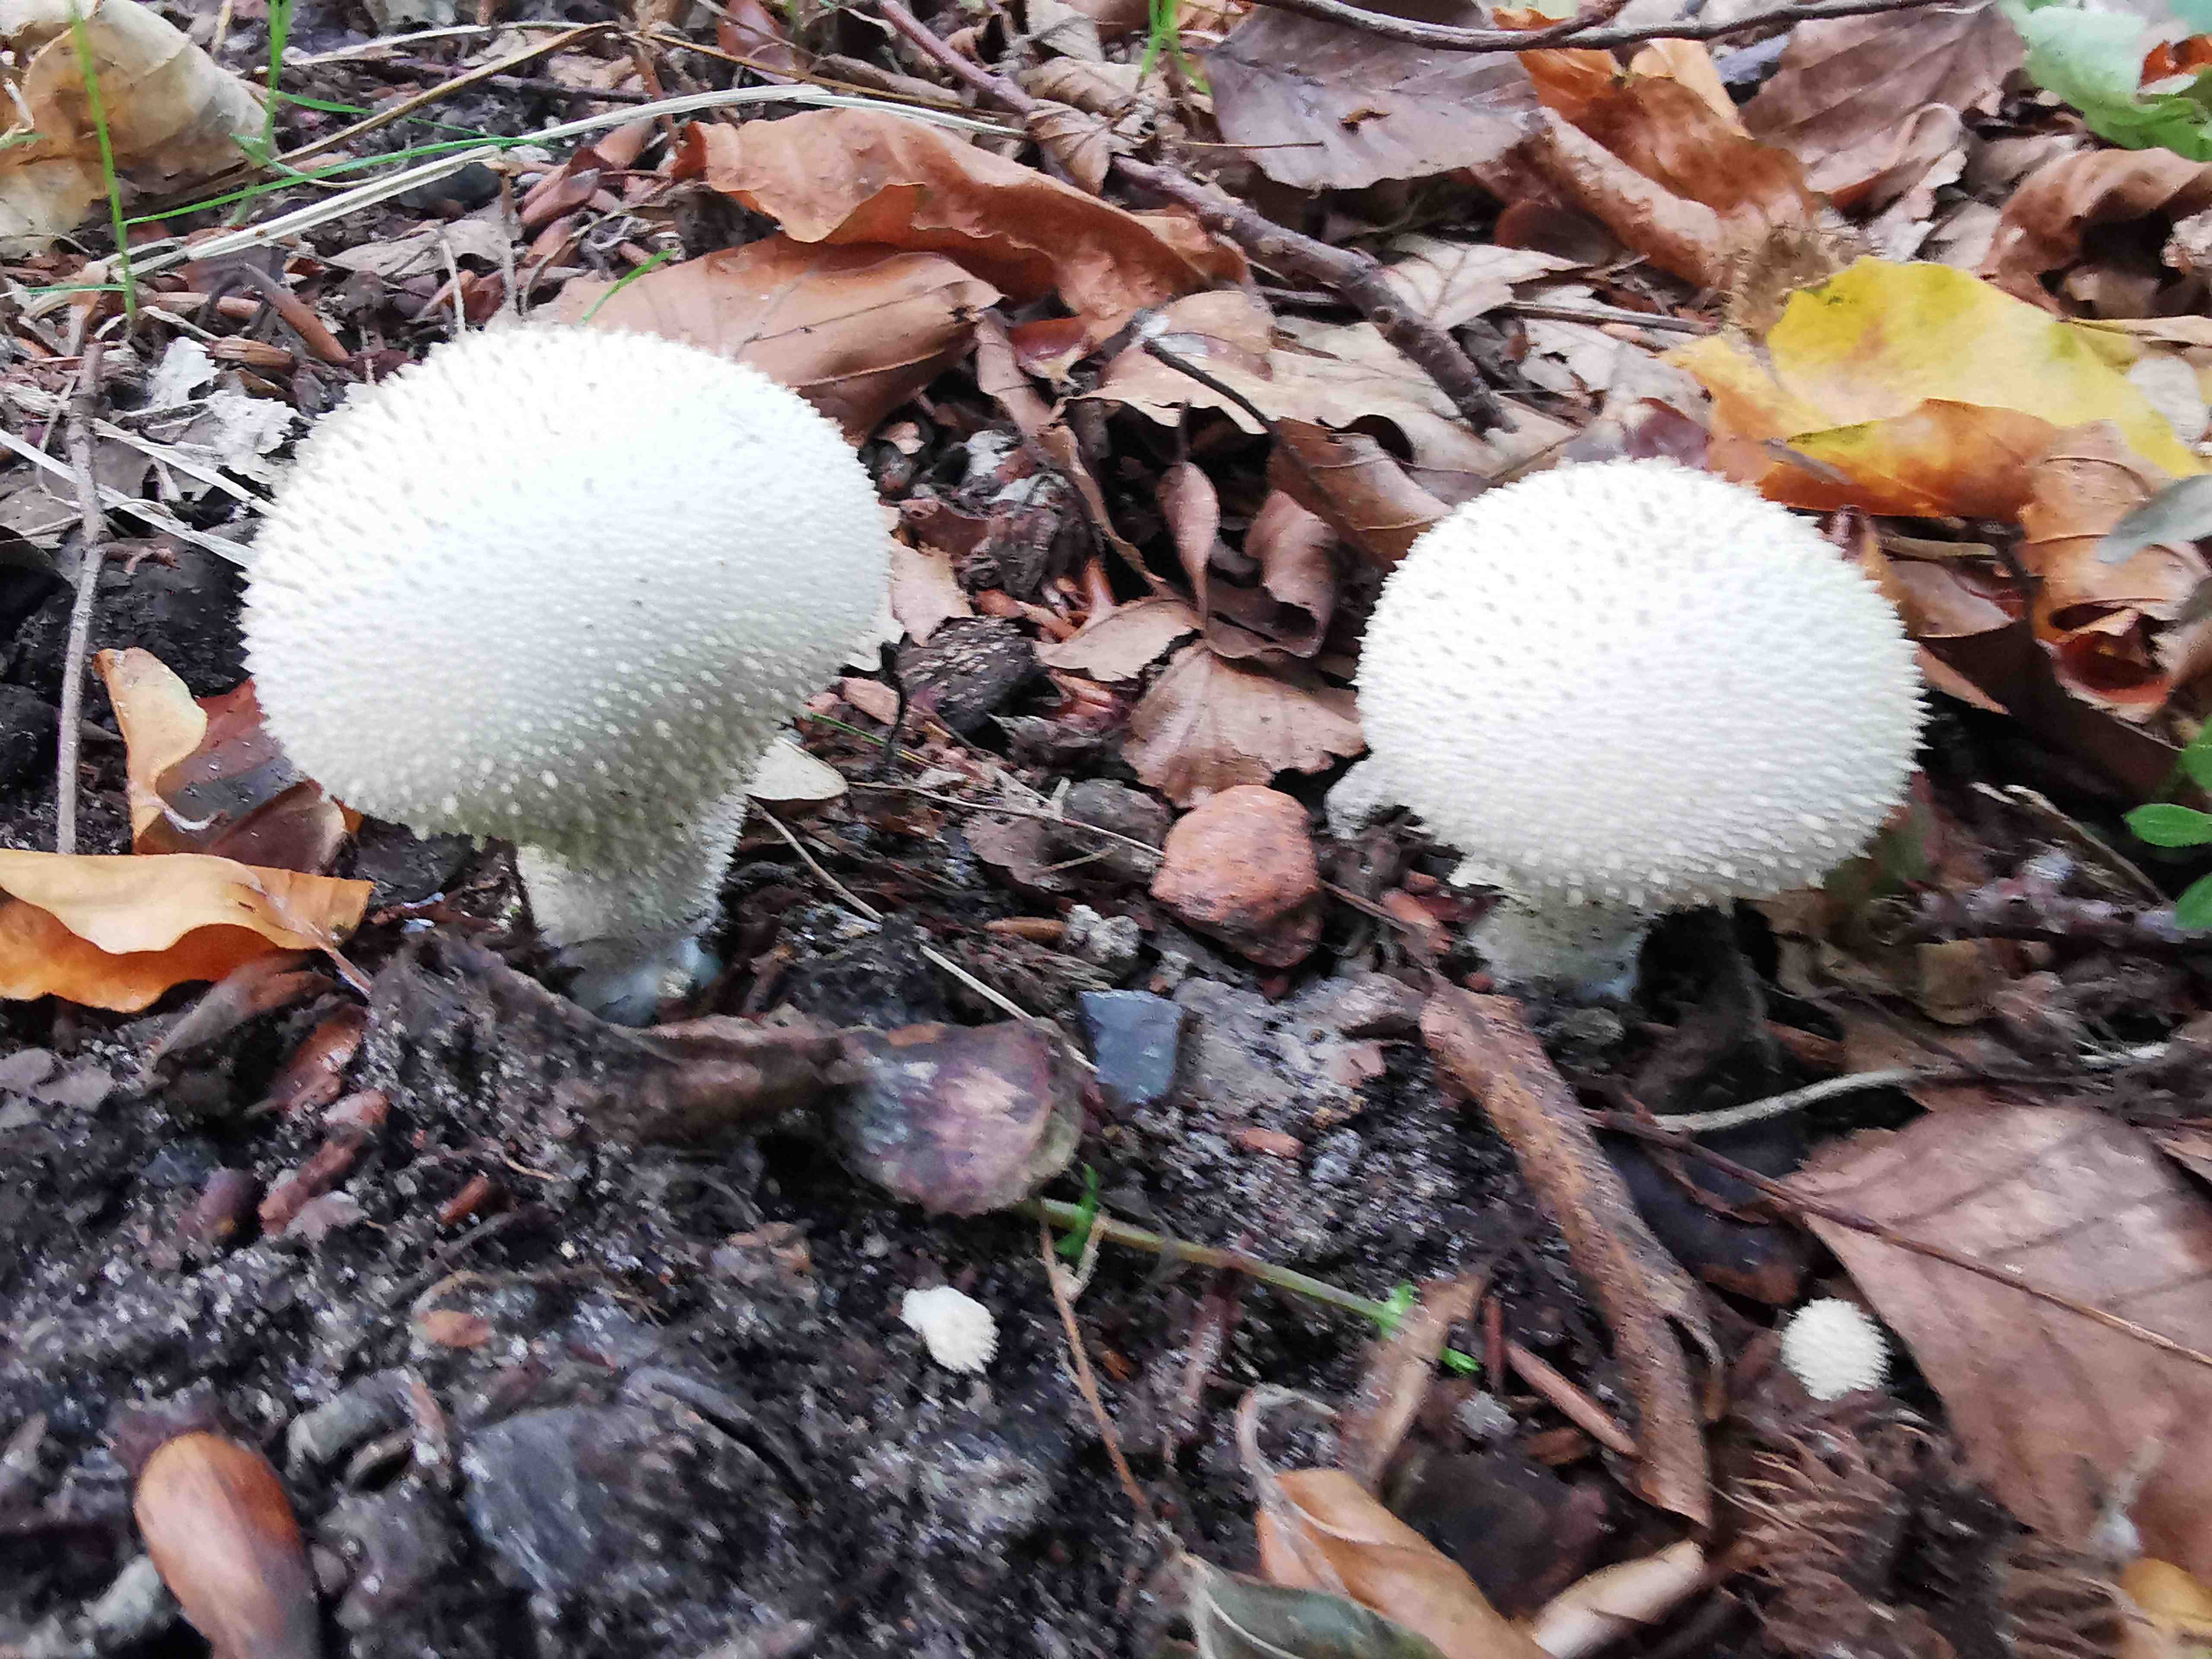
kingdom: Fungi
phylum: Basidiomycota
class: Agaricomycetes
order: Agaricales
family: Lycoperdaceae
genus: Lycoperdon
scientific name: Lycoperdon perlatum
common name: krystal-støvbold
